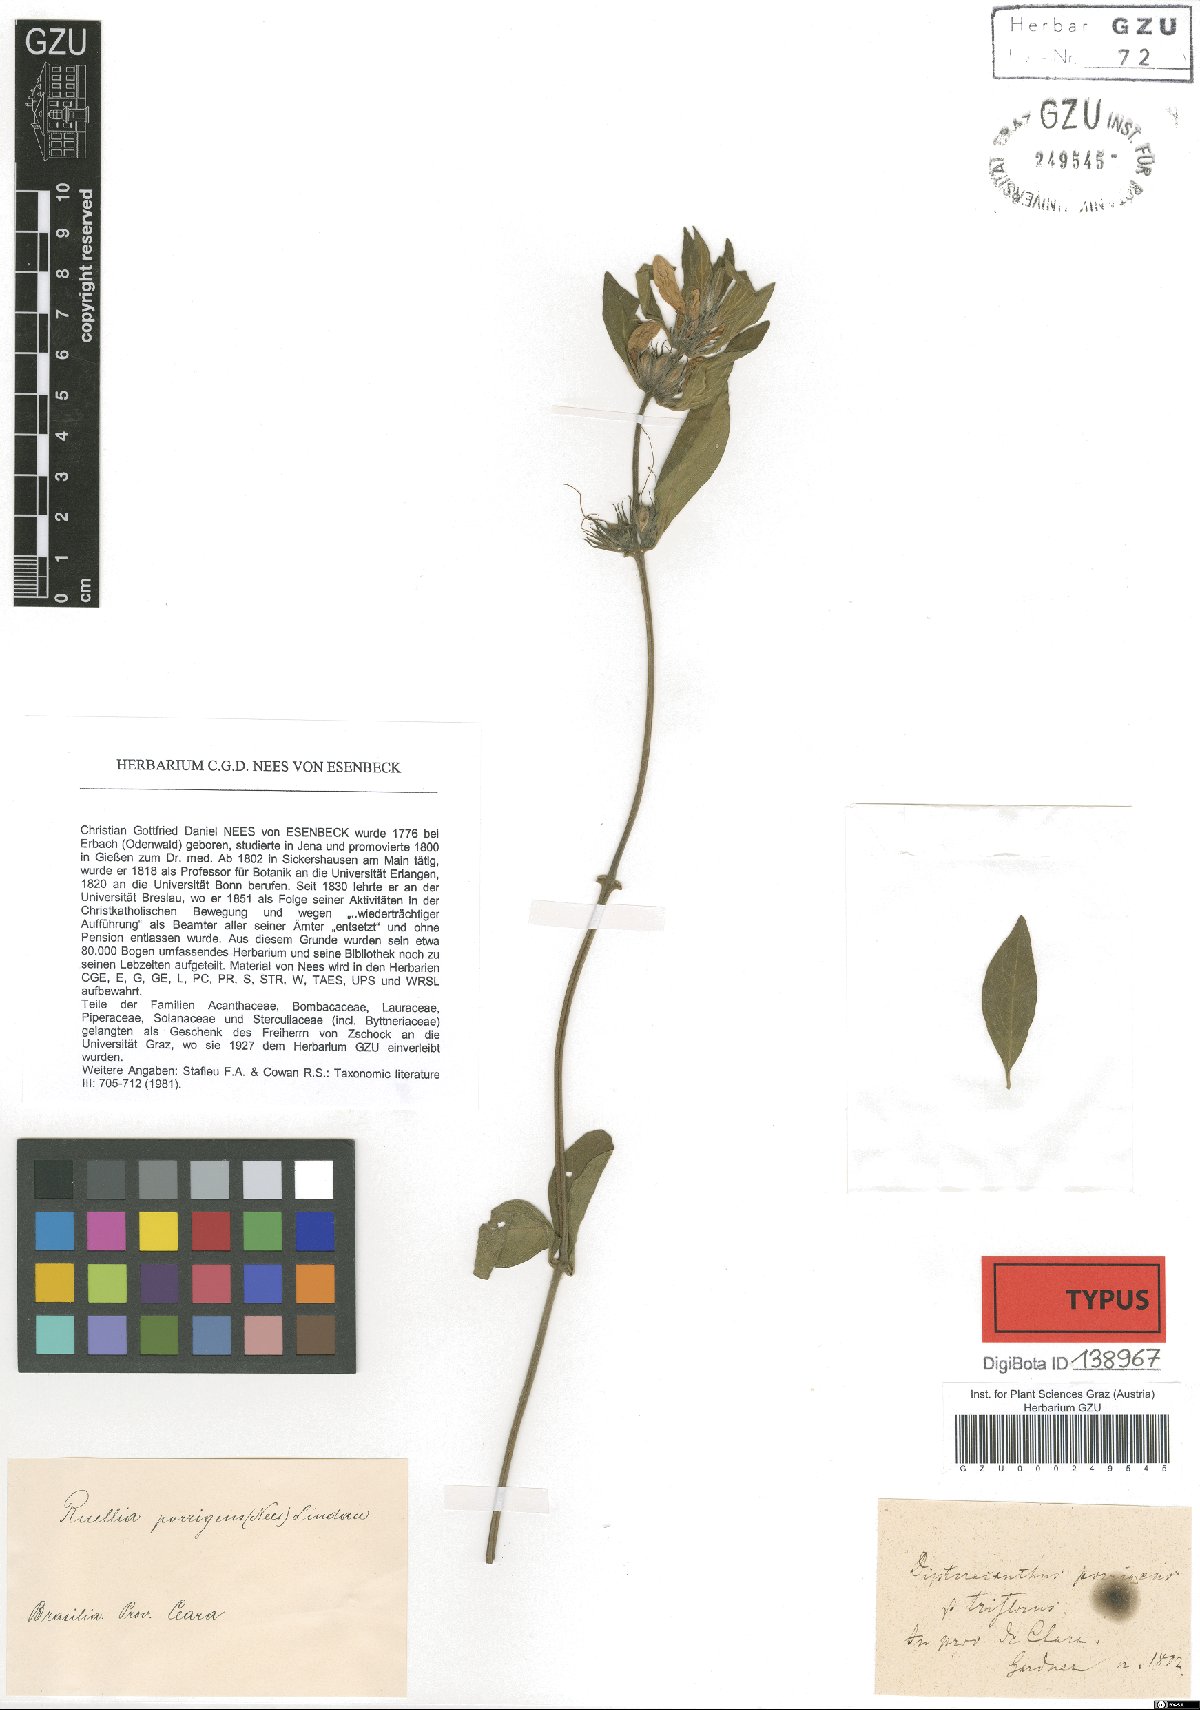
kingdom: Plantae
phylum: Tracheophyta
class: Magnoliopsida
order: Lamiales
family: Acanthaceae
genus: Ruellia
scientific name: Ruellia geminiflora
